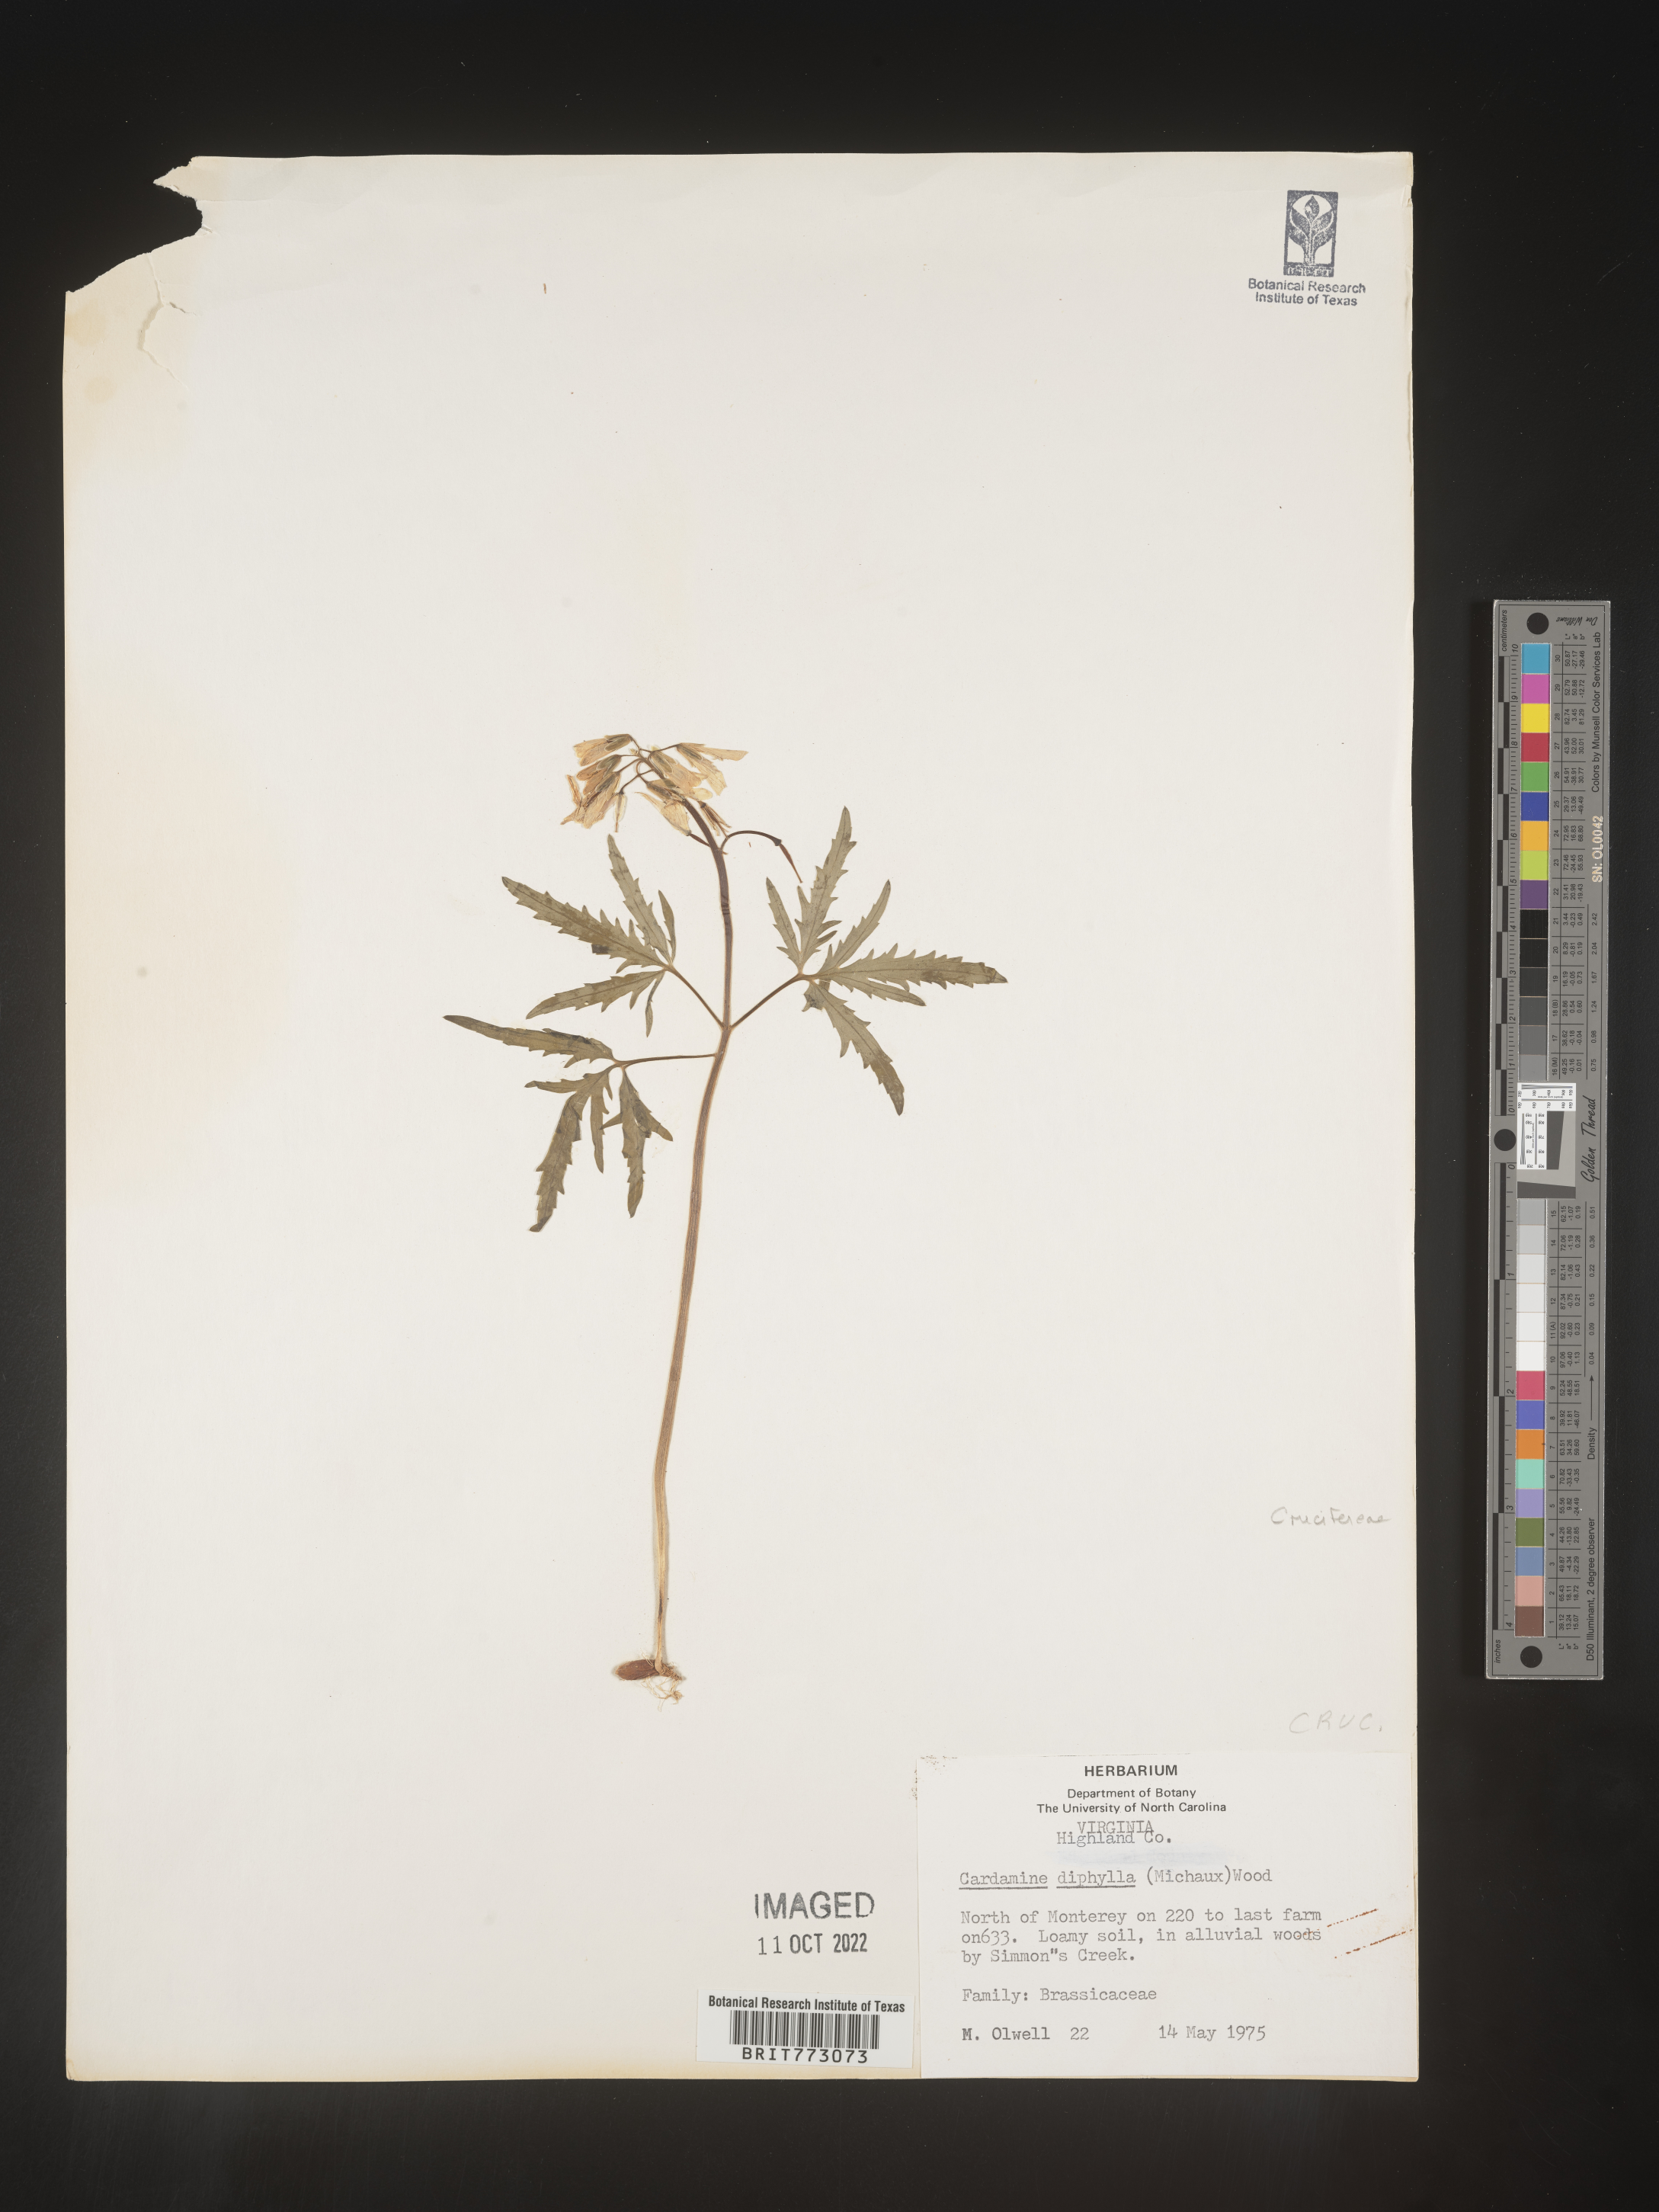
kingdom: Plantae
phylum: Tracheophyta
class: Magnoliopsida
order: Brassicales
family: Brassicaceae
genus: Cardamine
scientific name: Cardamine diphylla
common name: Broad-leaved toothwort
